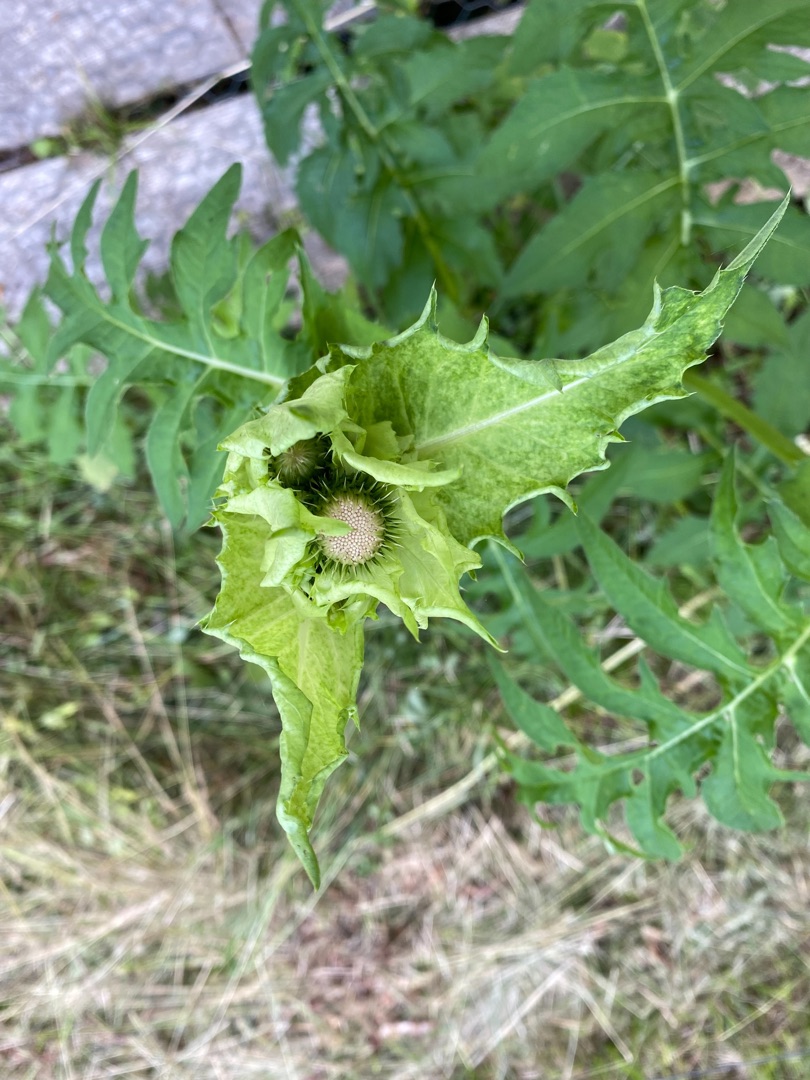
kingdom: Plantae
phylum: Tracheophyta
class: Magnoliopsida
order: Asterales
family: Asteraceae
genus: Cirsium
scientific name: Cirsium oleraceum
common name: Kål-tidsel
